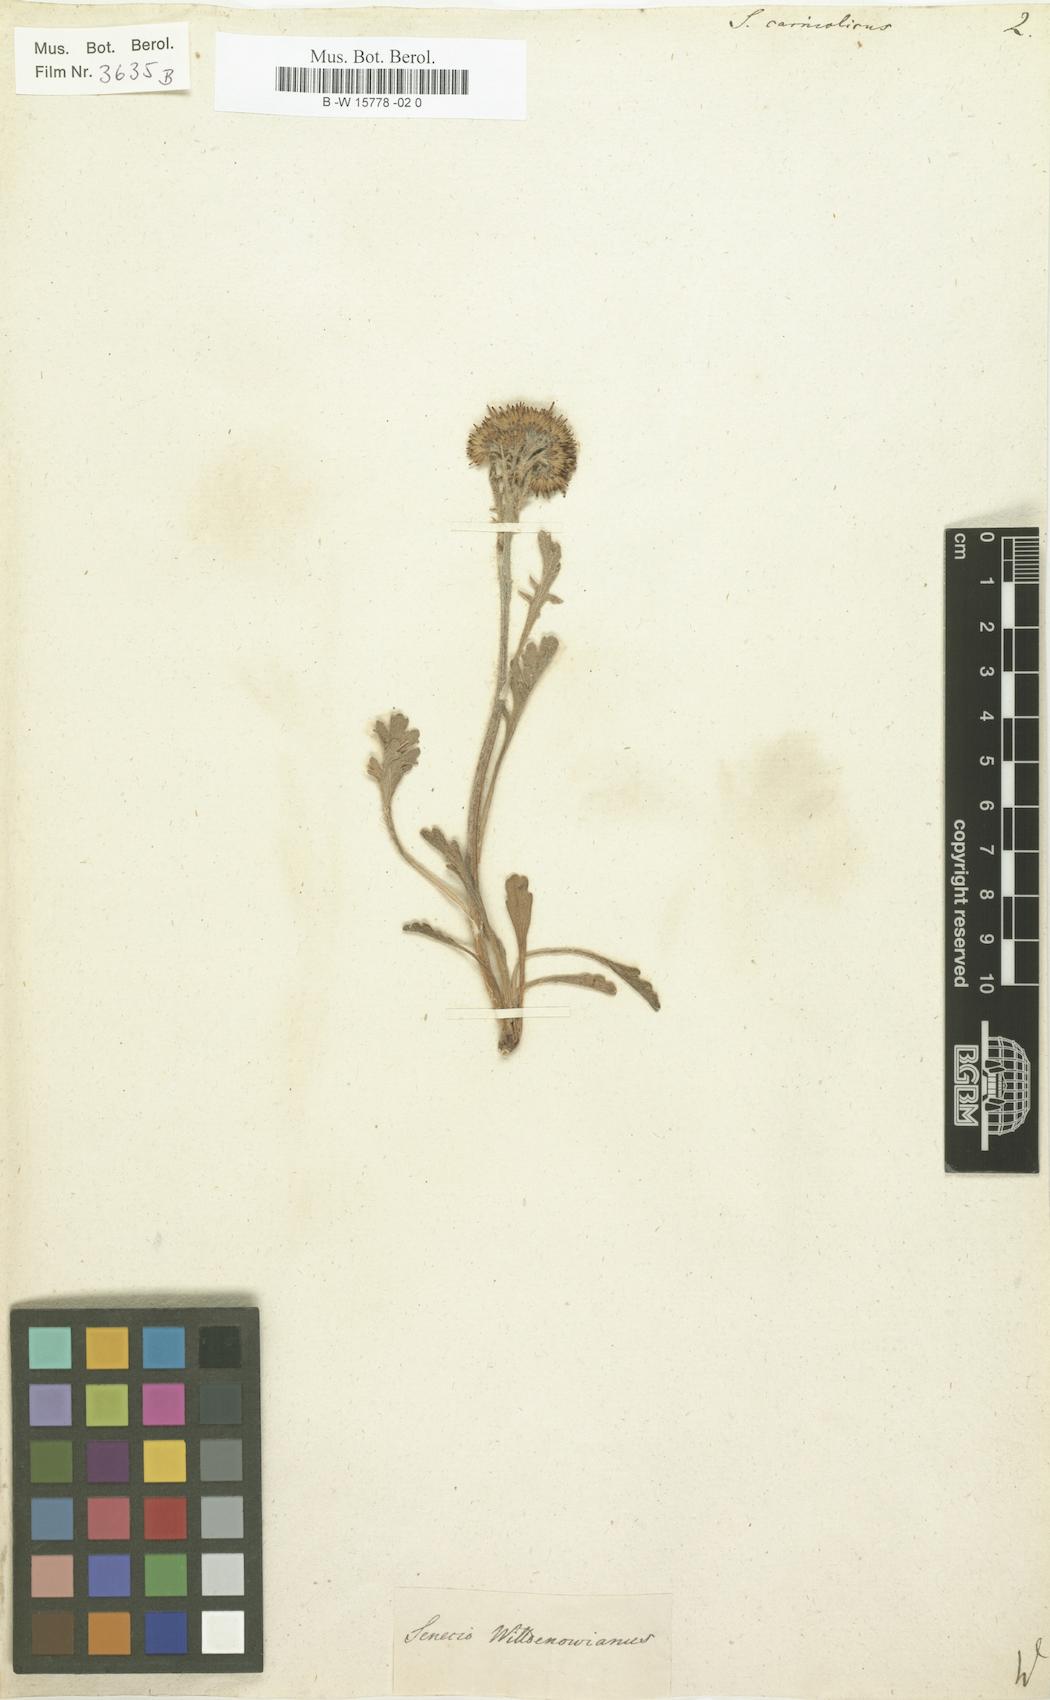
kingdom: Plantae
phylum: Tracheophyta
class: Magnoliopsida
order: Asterales
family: Asteraceae
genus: Jacobaea
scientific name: Jacobaea carniolica
